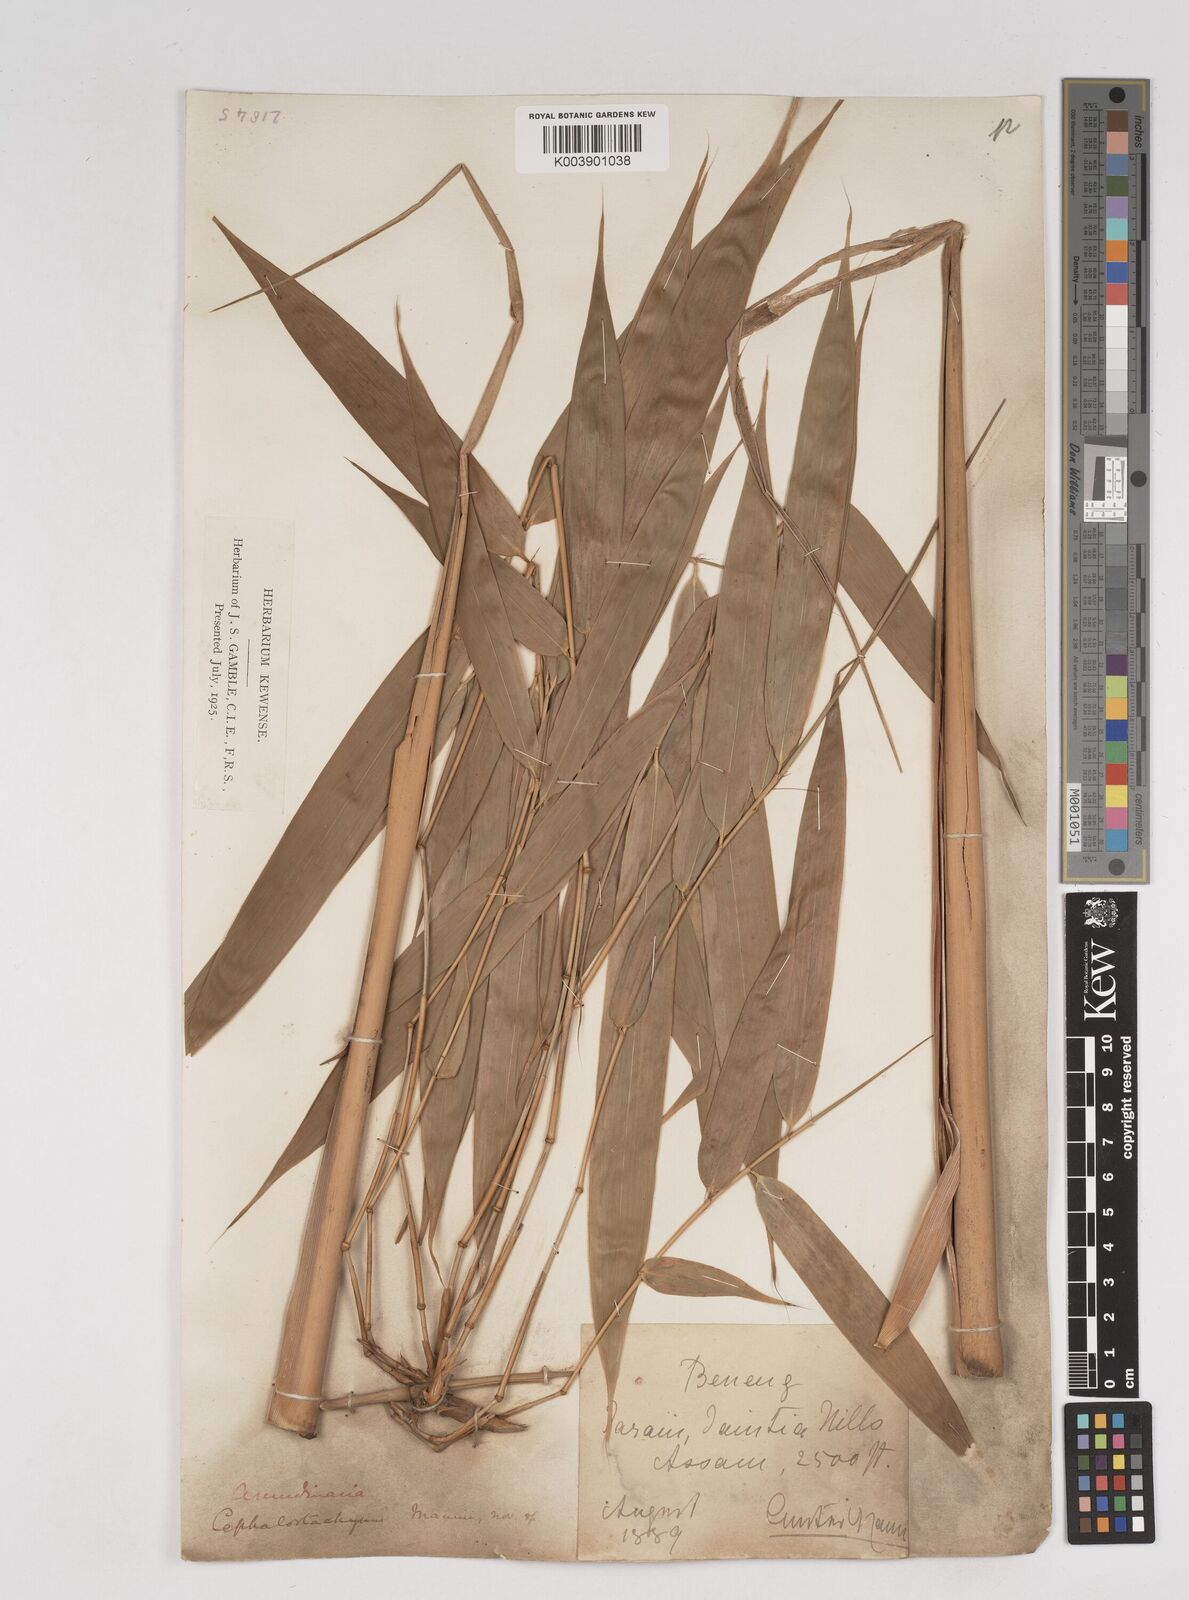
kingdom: Plantae
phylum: Tracheophyta
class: Liliopsida
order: Poales
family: Poaceae
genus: Cephalostachyum
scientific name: Cephalostachyum mannii
